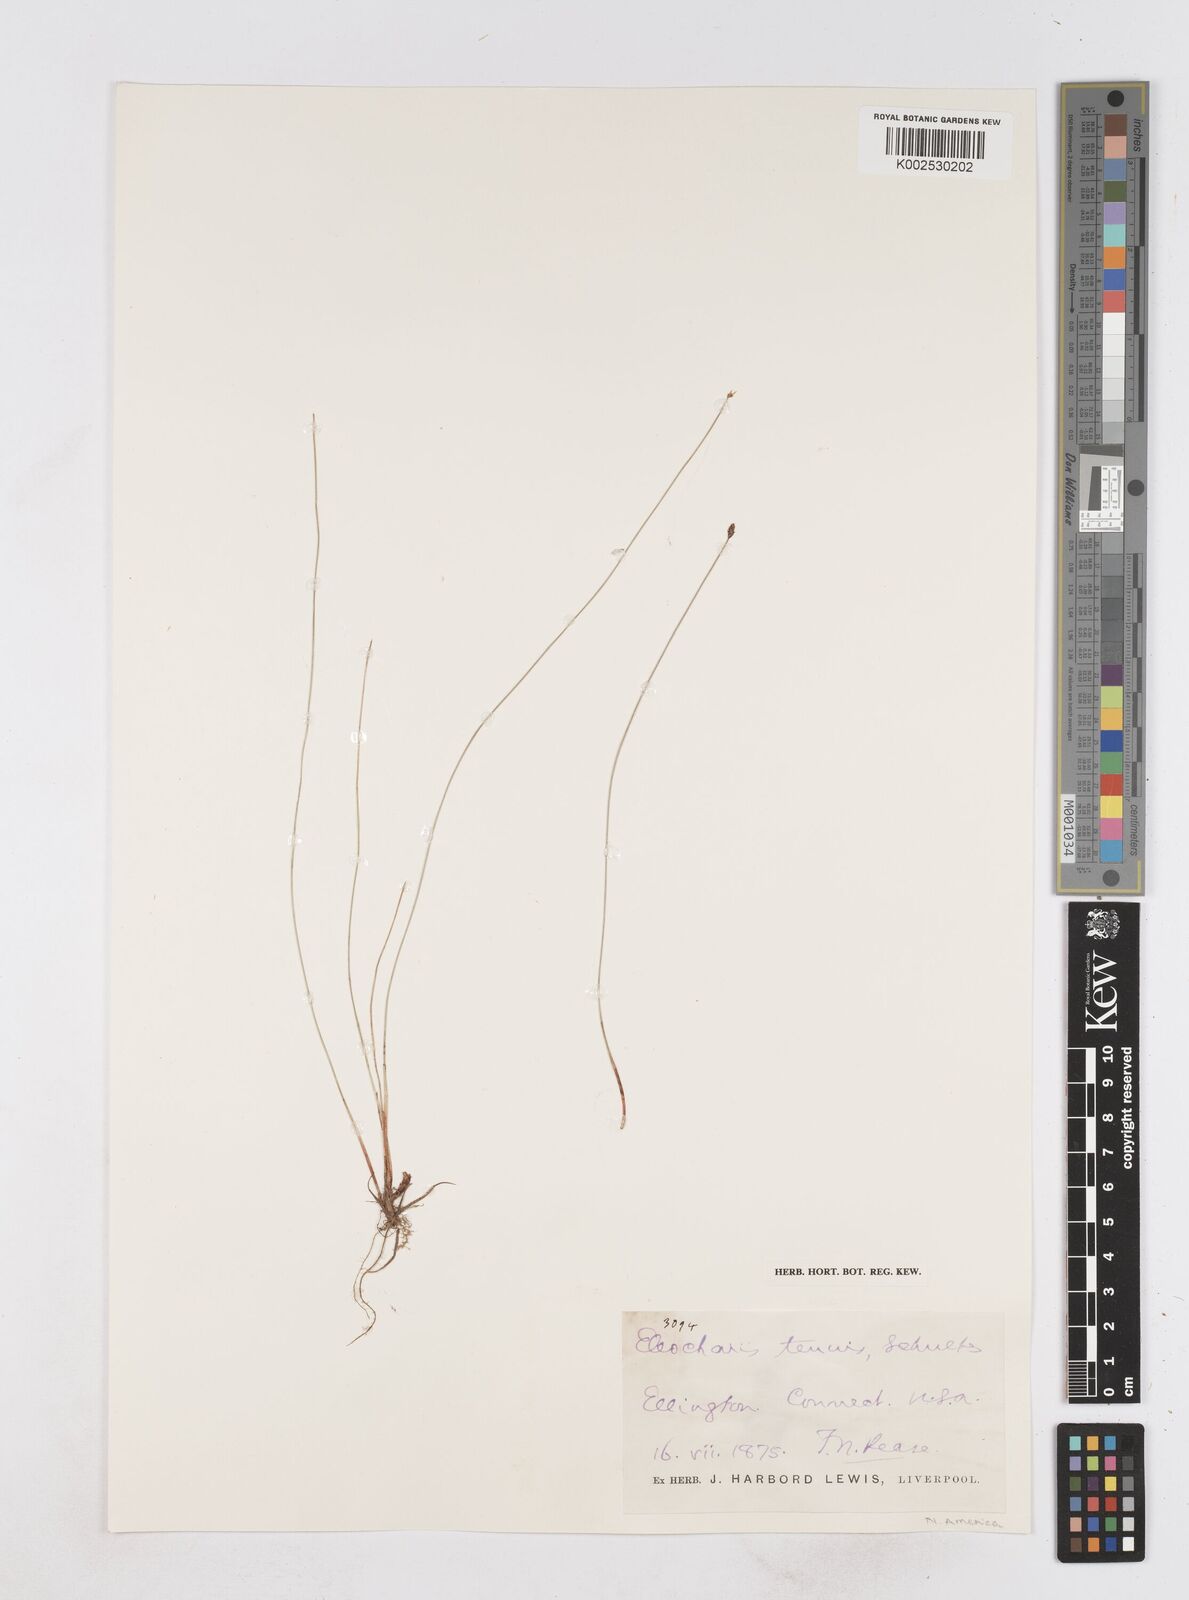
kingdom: Plantae
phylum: Tracheophyta
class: Liliopsida
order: Poales
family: Cyperaceae
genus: Eleocharis
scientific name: Eleocharis tenuis
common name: Dog's hair
